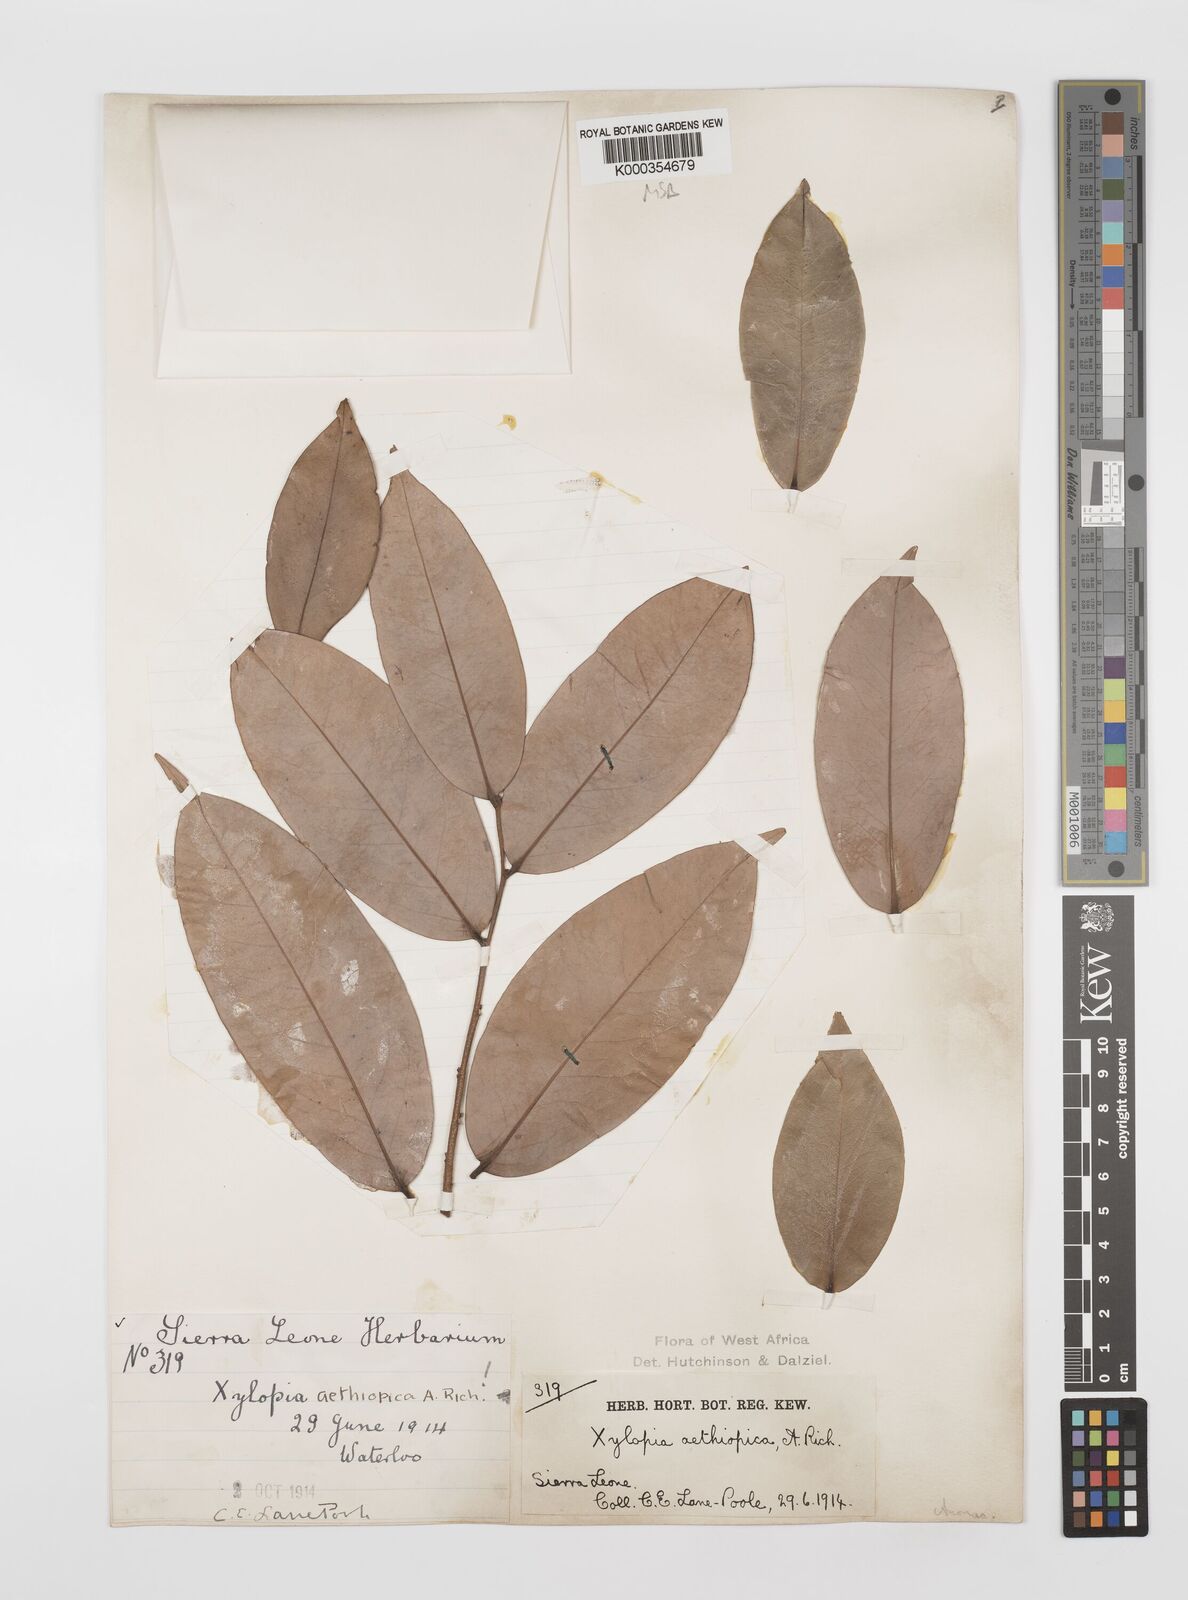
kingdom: Plantae
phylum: Tracheophyta
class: Magnoliopsida
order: Magnoliales
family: Annonaceae
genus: Xylopia
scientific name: Xylopia aethiopica
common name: Ethiopian-pepper
